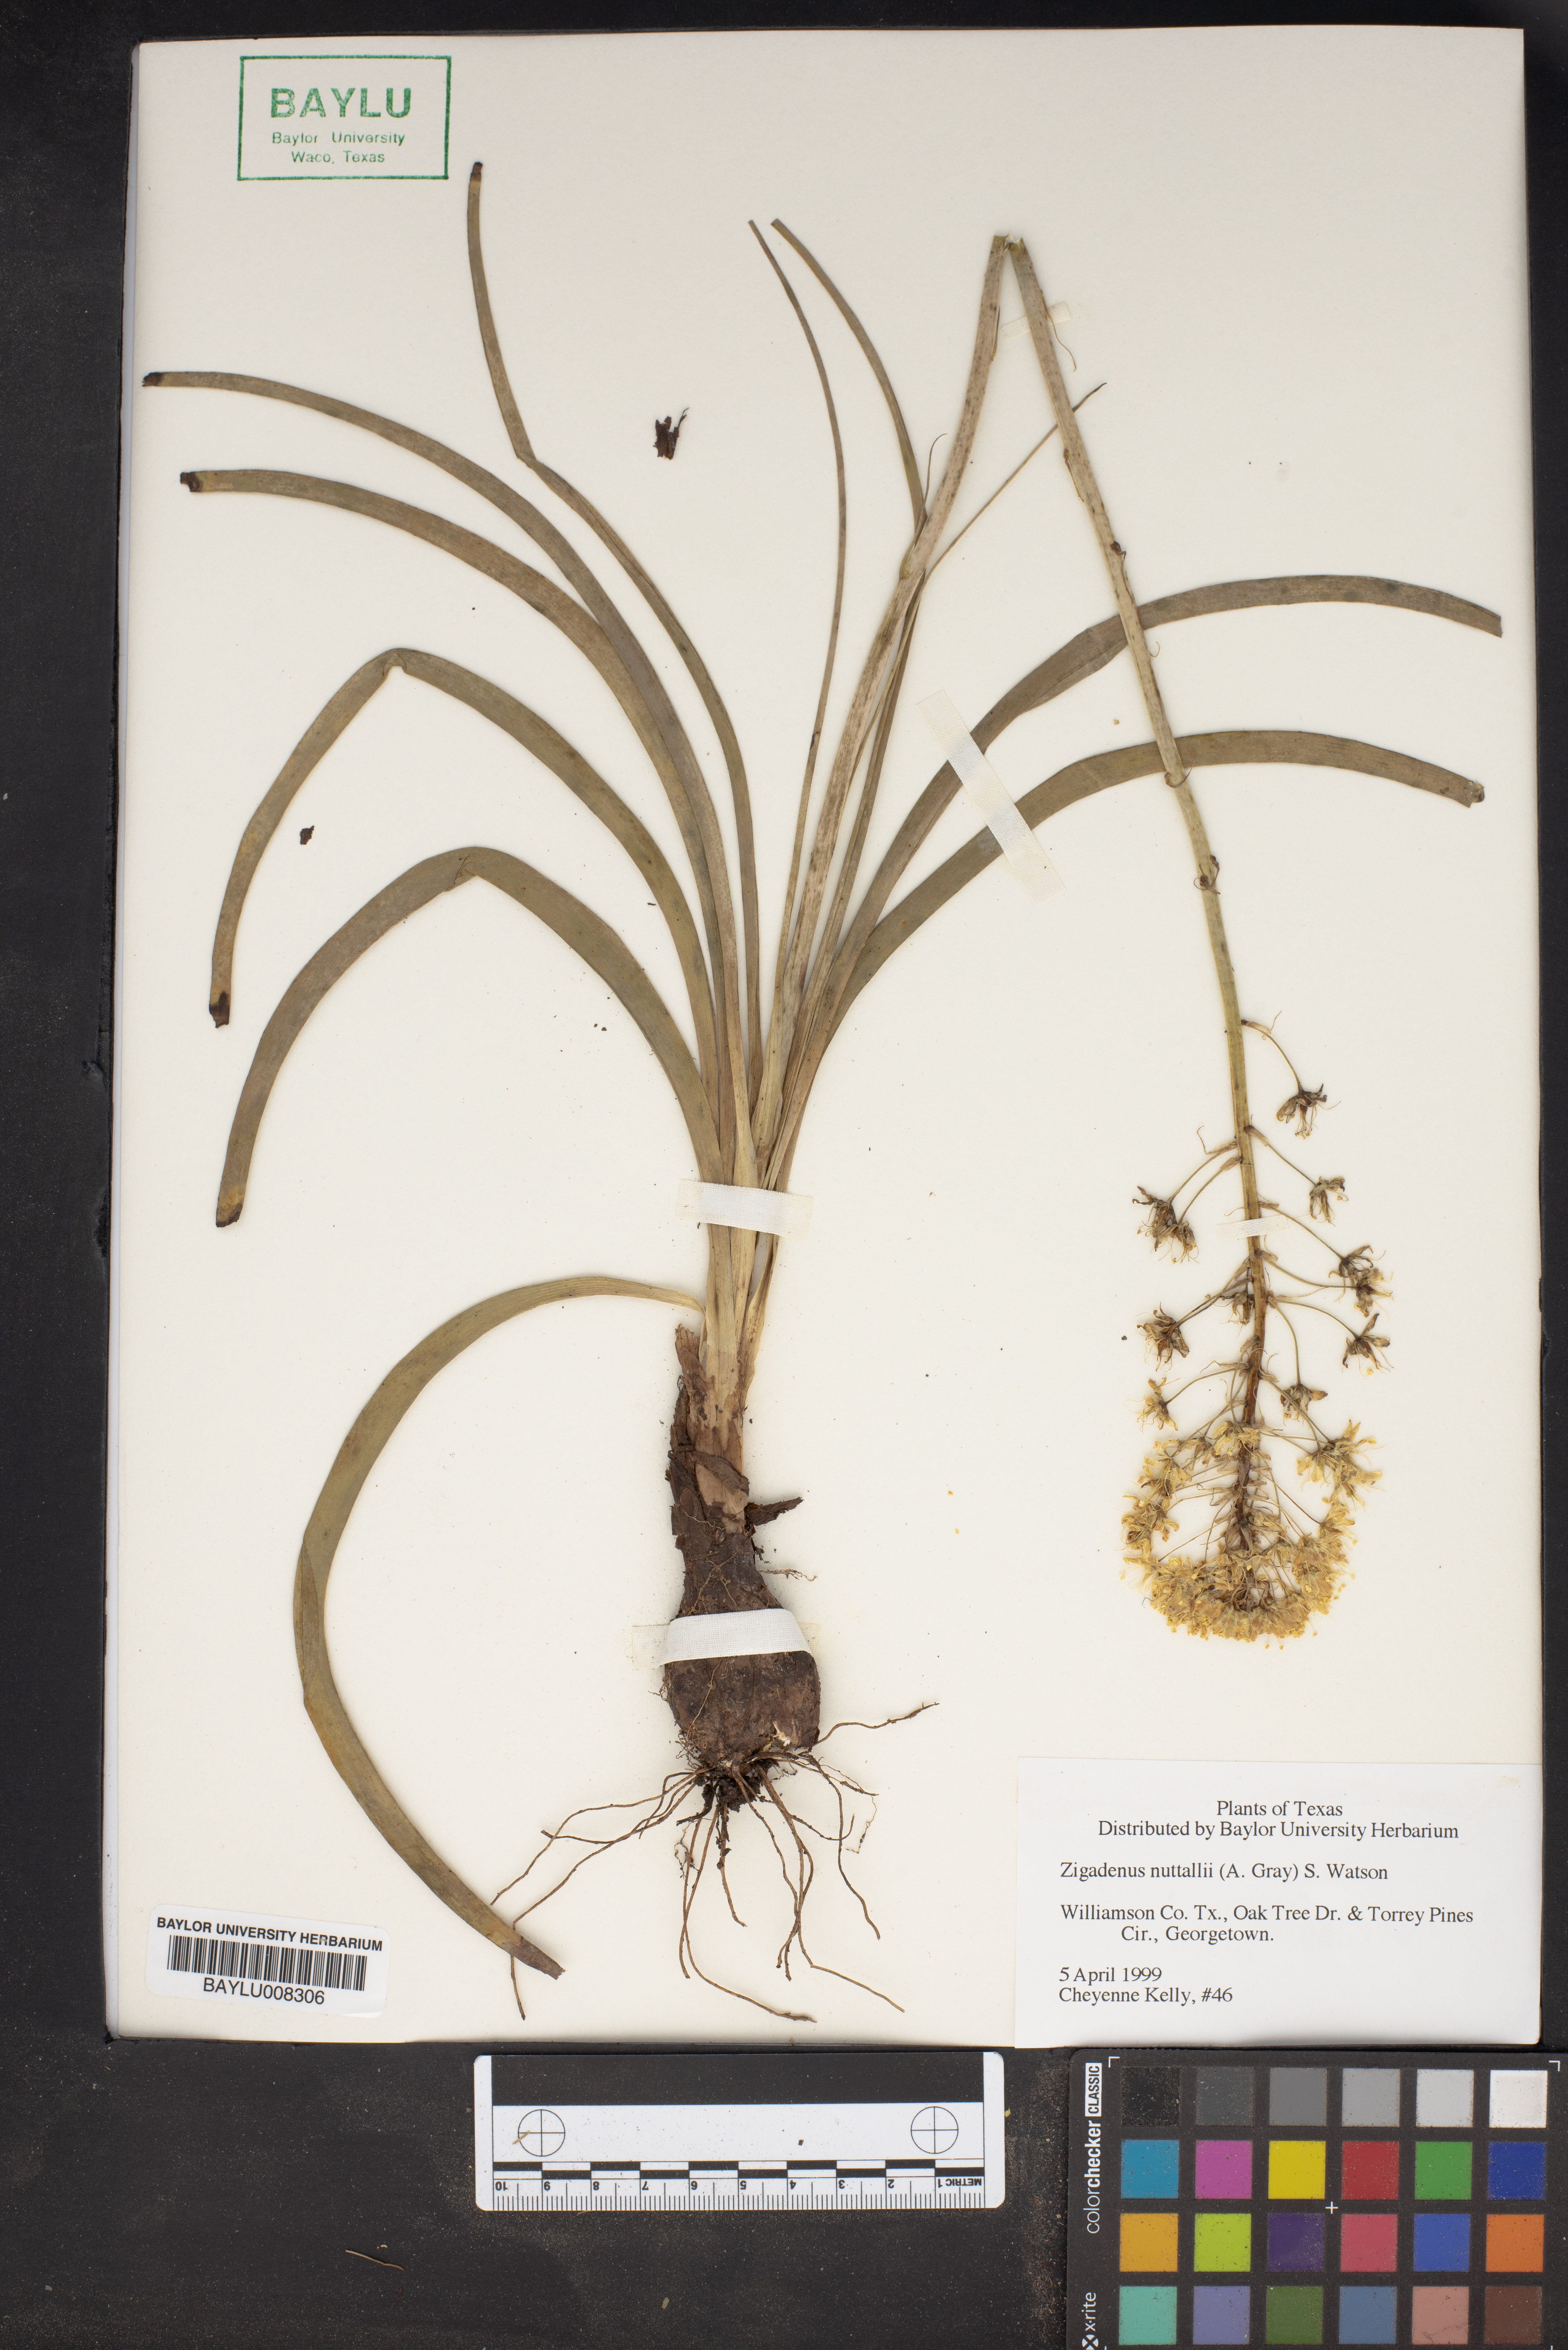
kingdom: Plantae
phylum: Tracheophyta
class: Liliopsida
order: Liliales
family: Melanthiaceae
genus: Toxicoscordion
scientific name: Toxicoscordion nuttallii
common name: Poison sego
